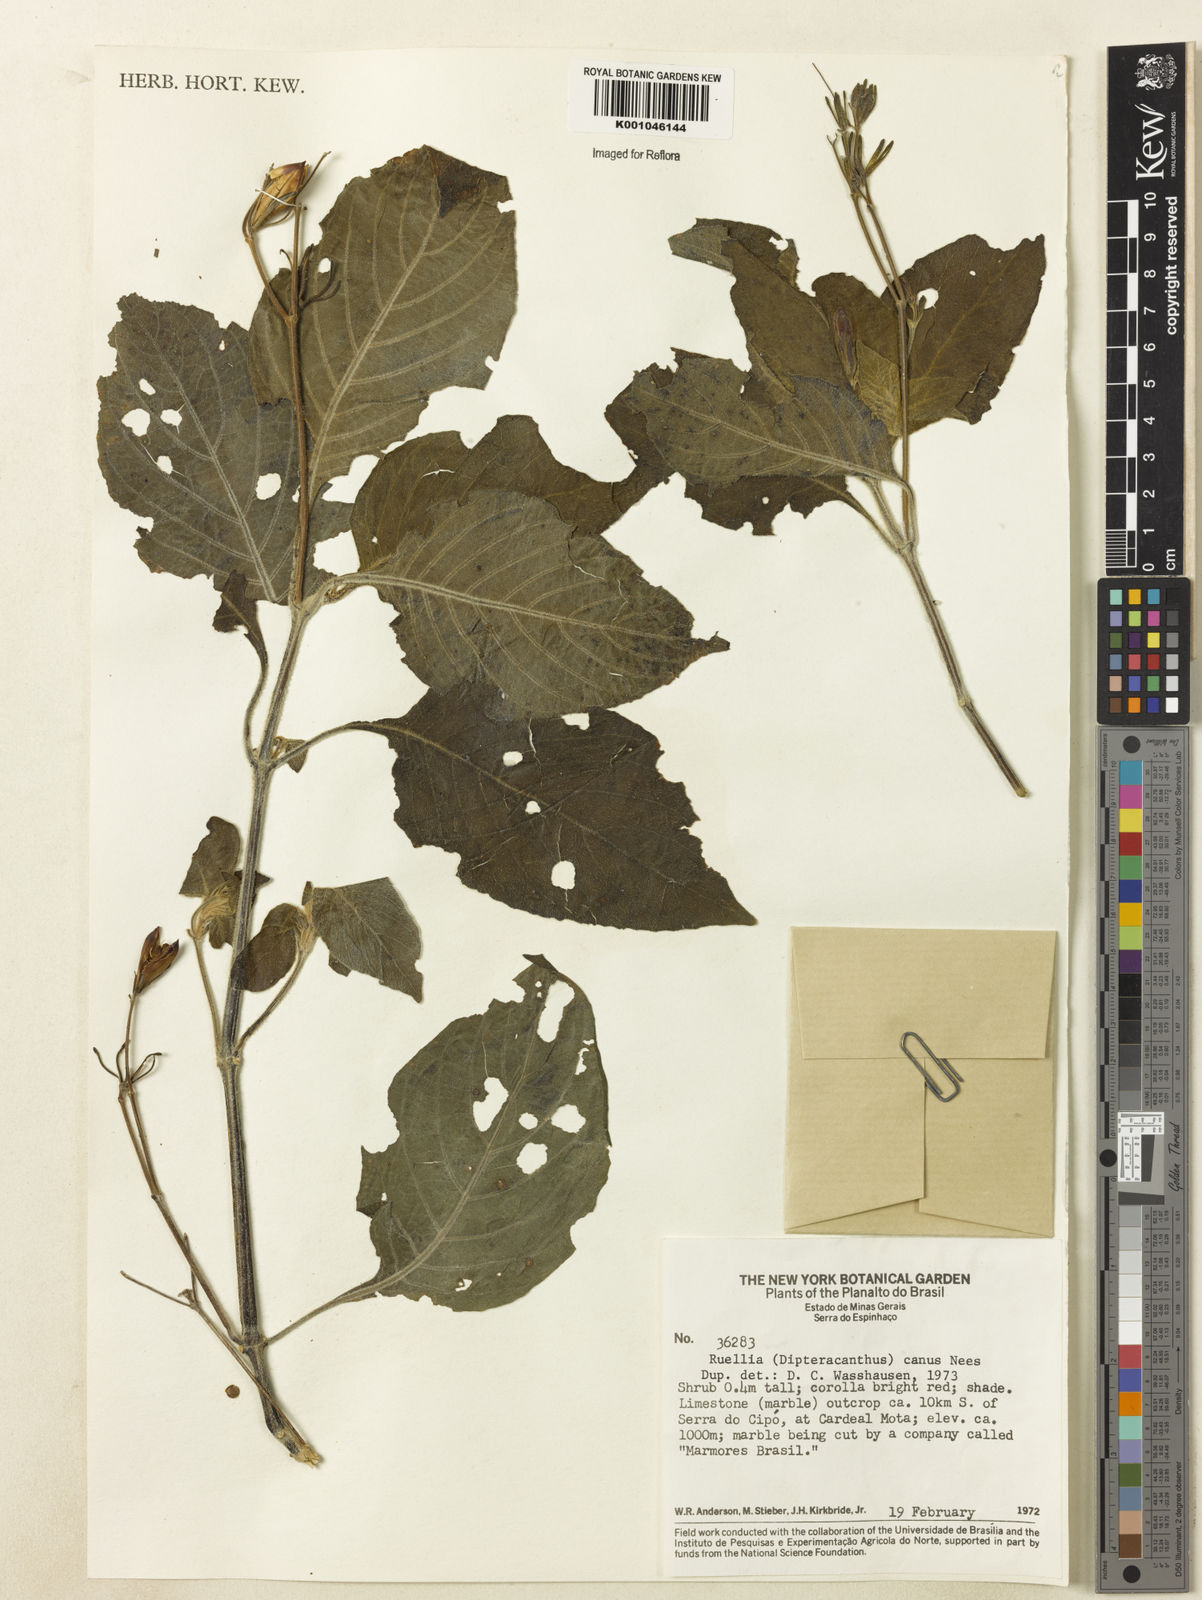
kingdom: Plantae
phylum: Tracheophyta
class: Magnoliopsida
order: Lamiales
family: Acanthaceae
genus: Ruellia
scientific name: Ruellia
